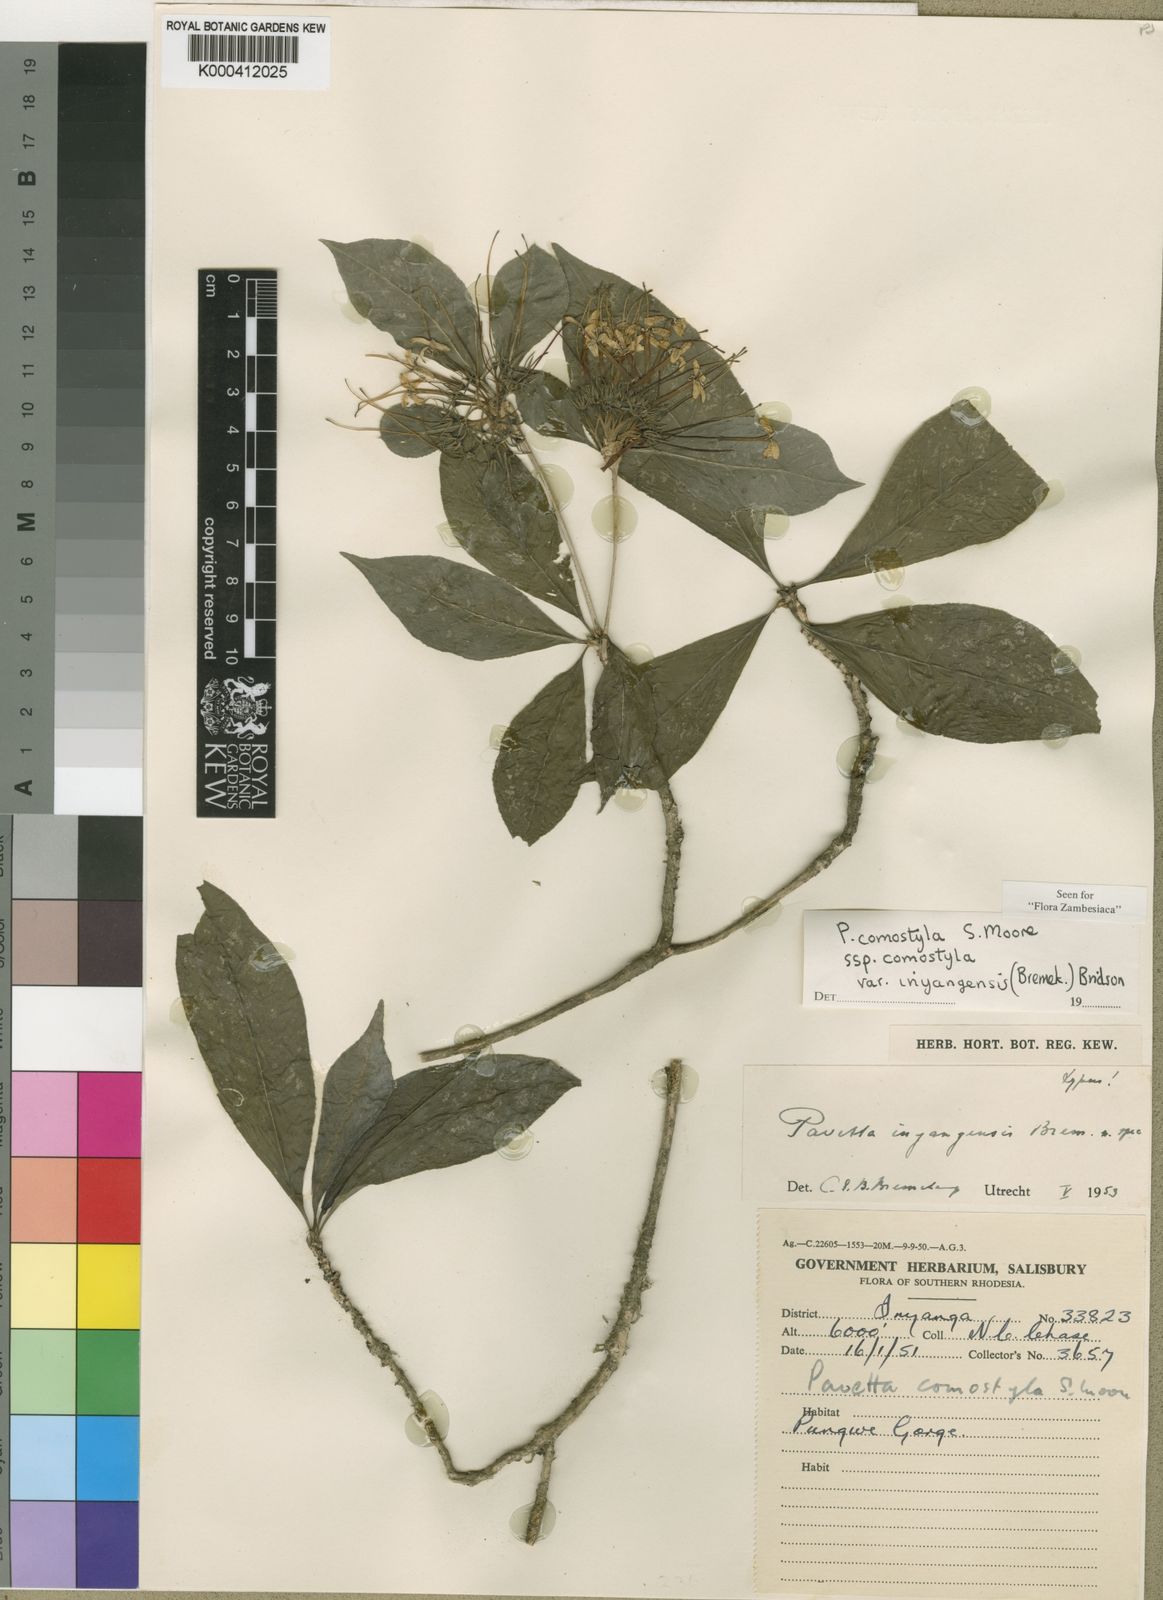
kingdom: Plantae
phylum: Tracheophyta
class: Magnoliopsida
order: Gentianales
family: Rubiaceae
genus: Pavetta
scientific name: Pavetta comostyla
